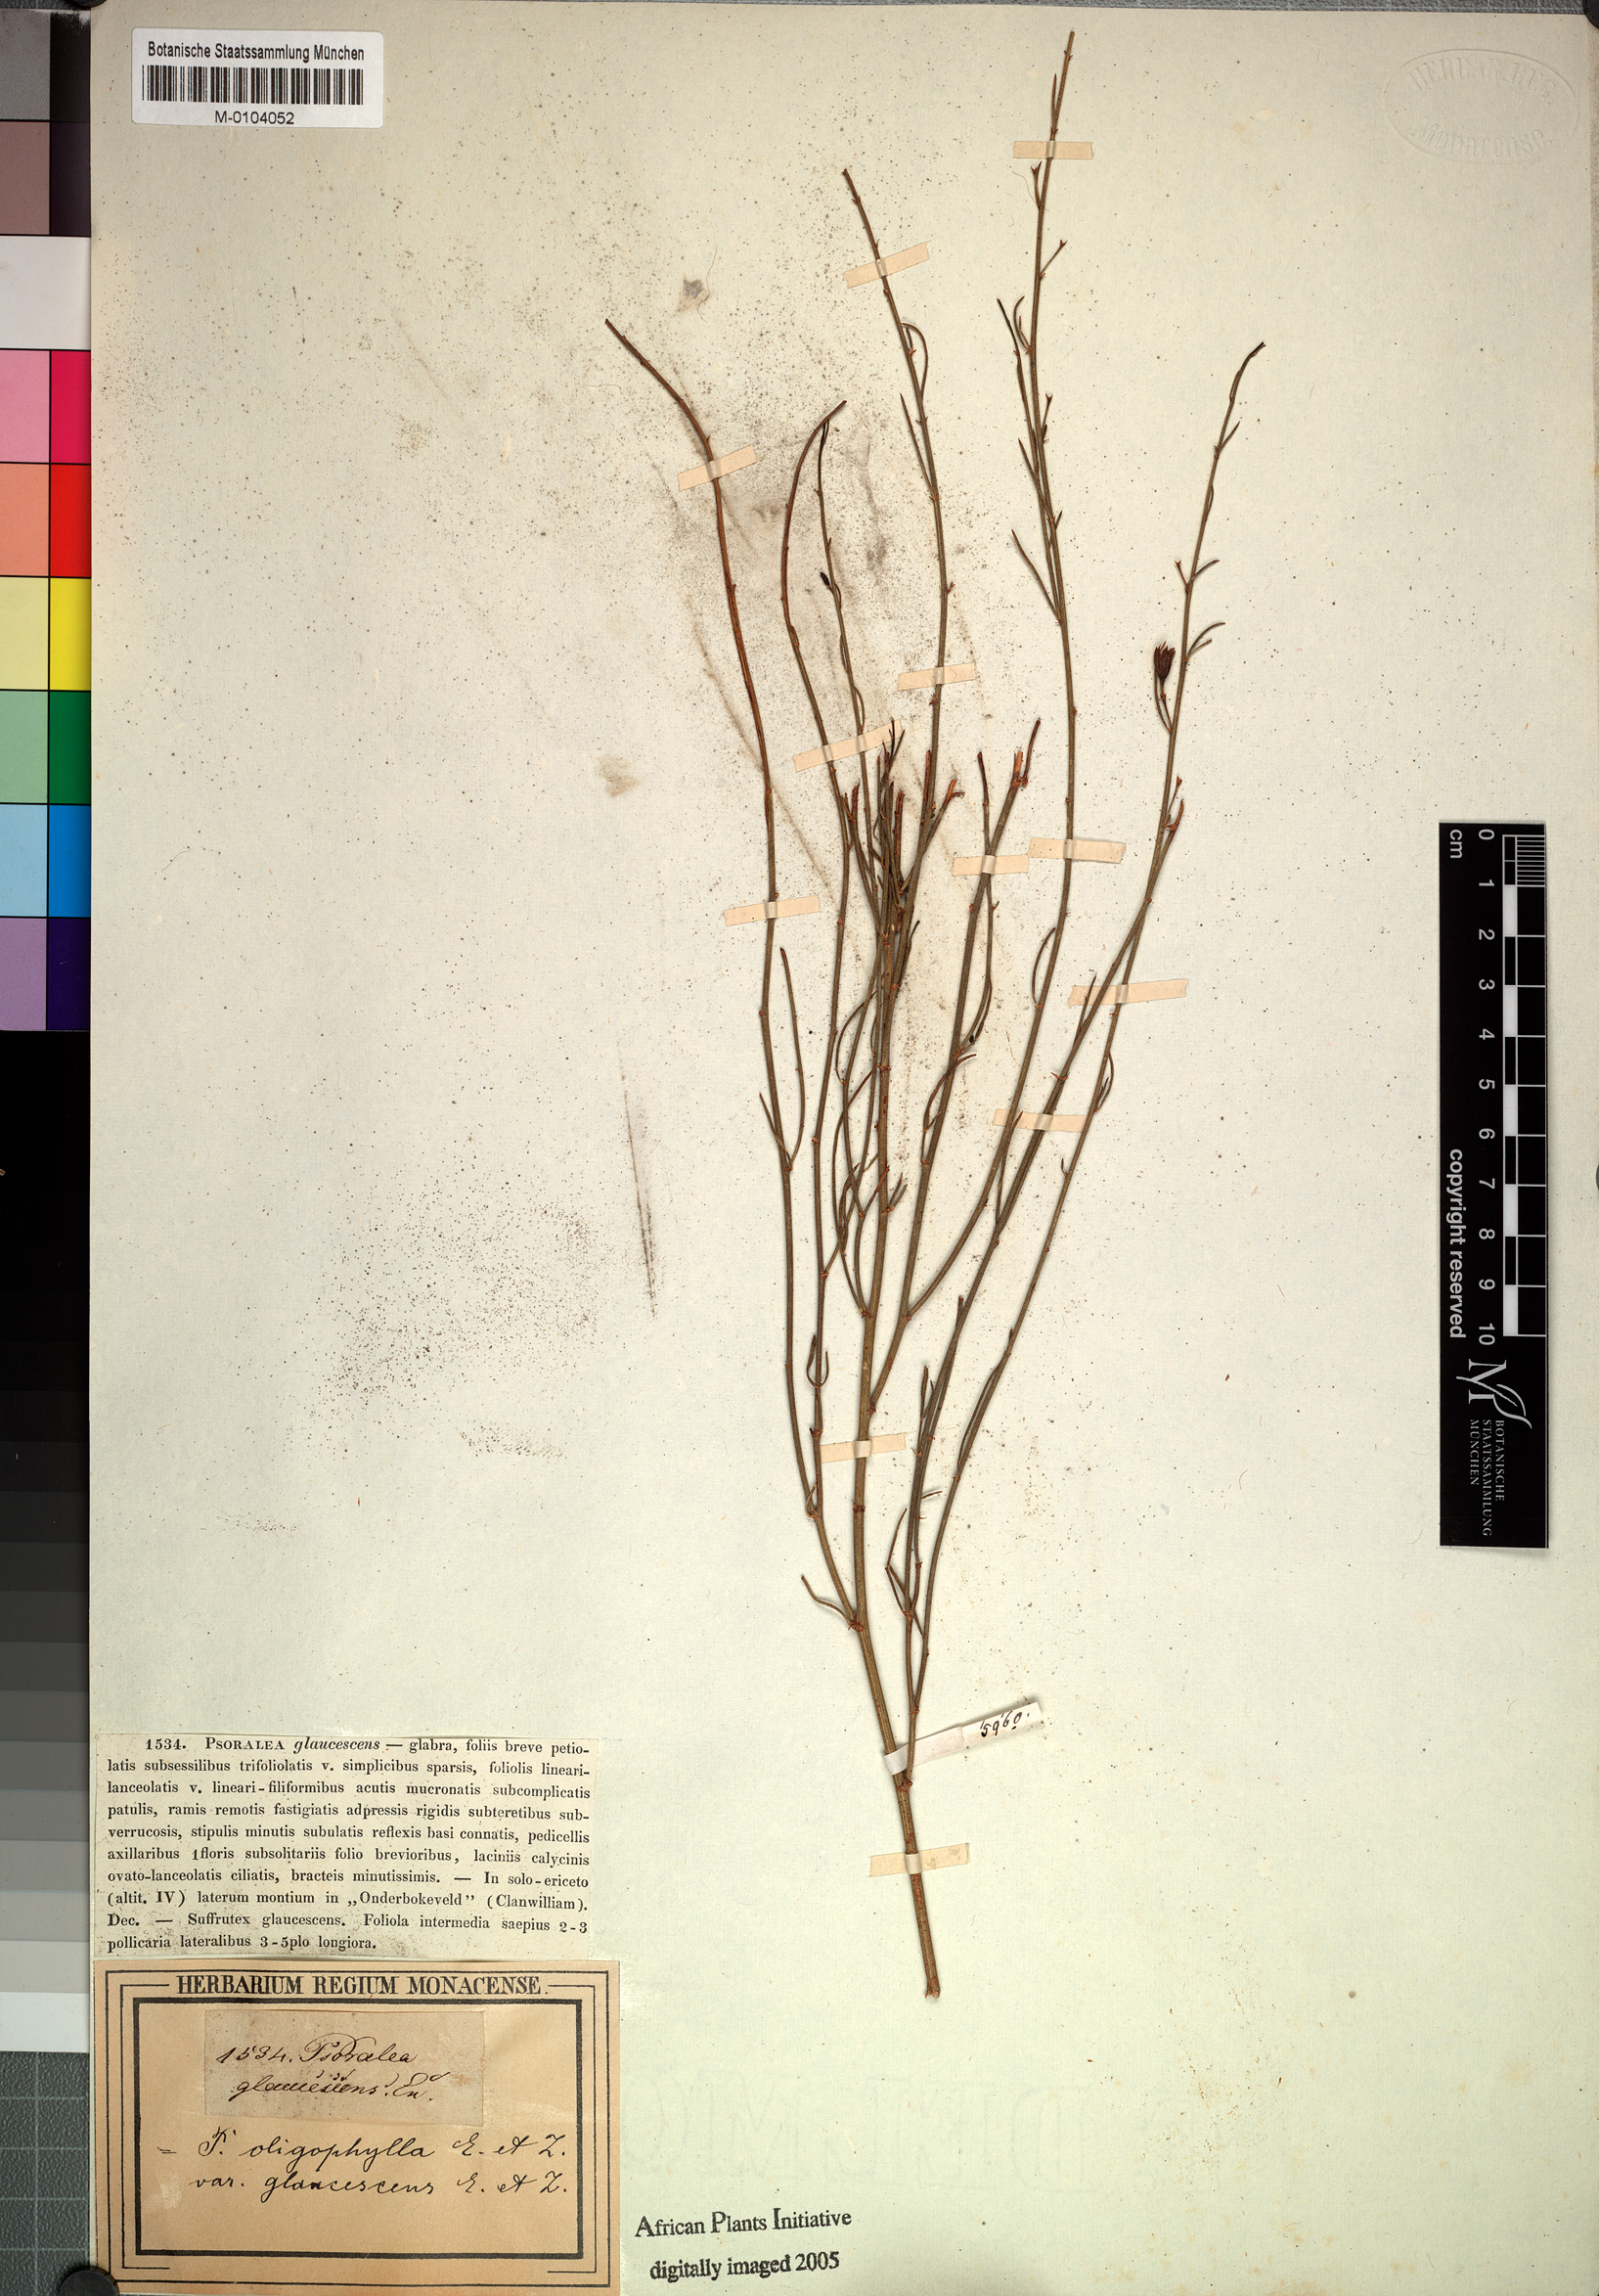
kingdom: Plantae
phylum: Tracheophyta
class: Magnoliopsida
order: Fabales
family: Fabaceae
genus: Psoralea
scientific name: Psoralea oligophylla
